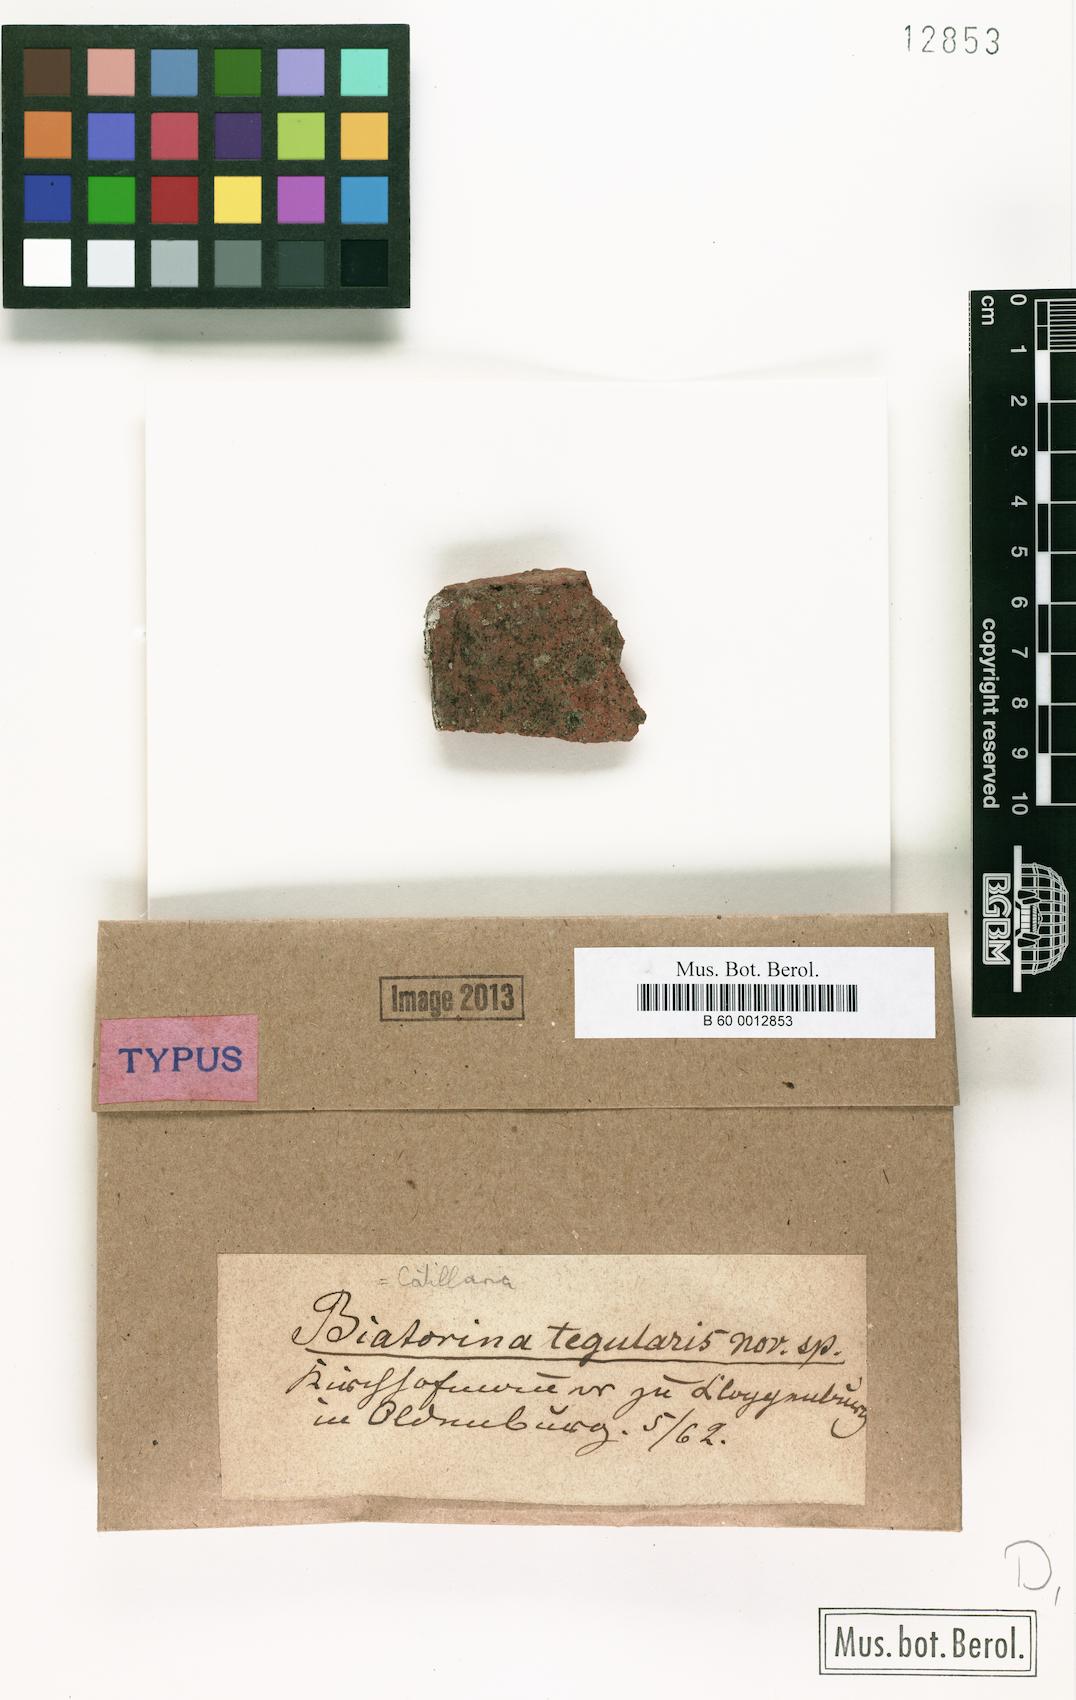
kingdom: Fungi
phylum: Ascomycota
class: Lecanoromycetes
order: Lecanorales
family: Catillariaceae
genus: Catillaria
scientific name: Catillaria
